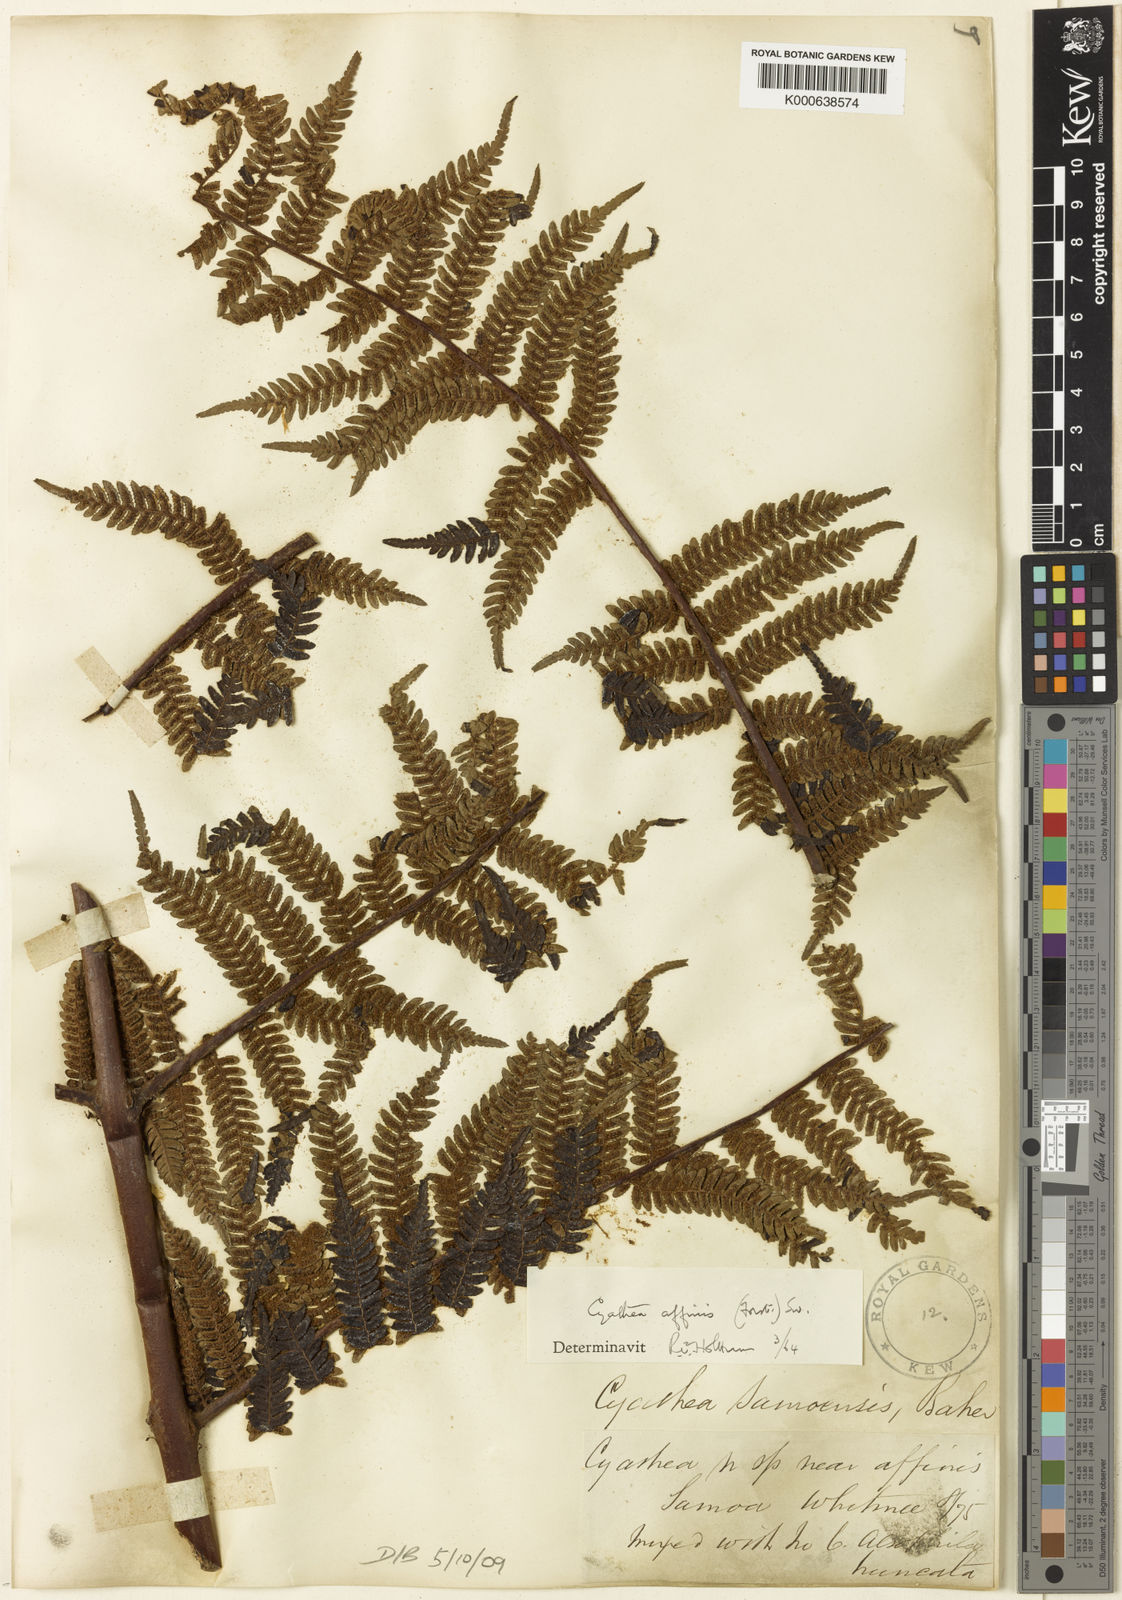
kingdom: Plantae
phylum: Tracheophyta
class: Polypodiopsida
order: Cyatheales
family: Cyatheaceae
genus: Alsophila
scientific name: Alsophila tahitensis
